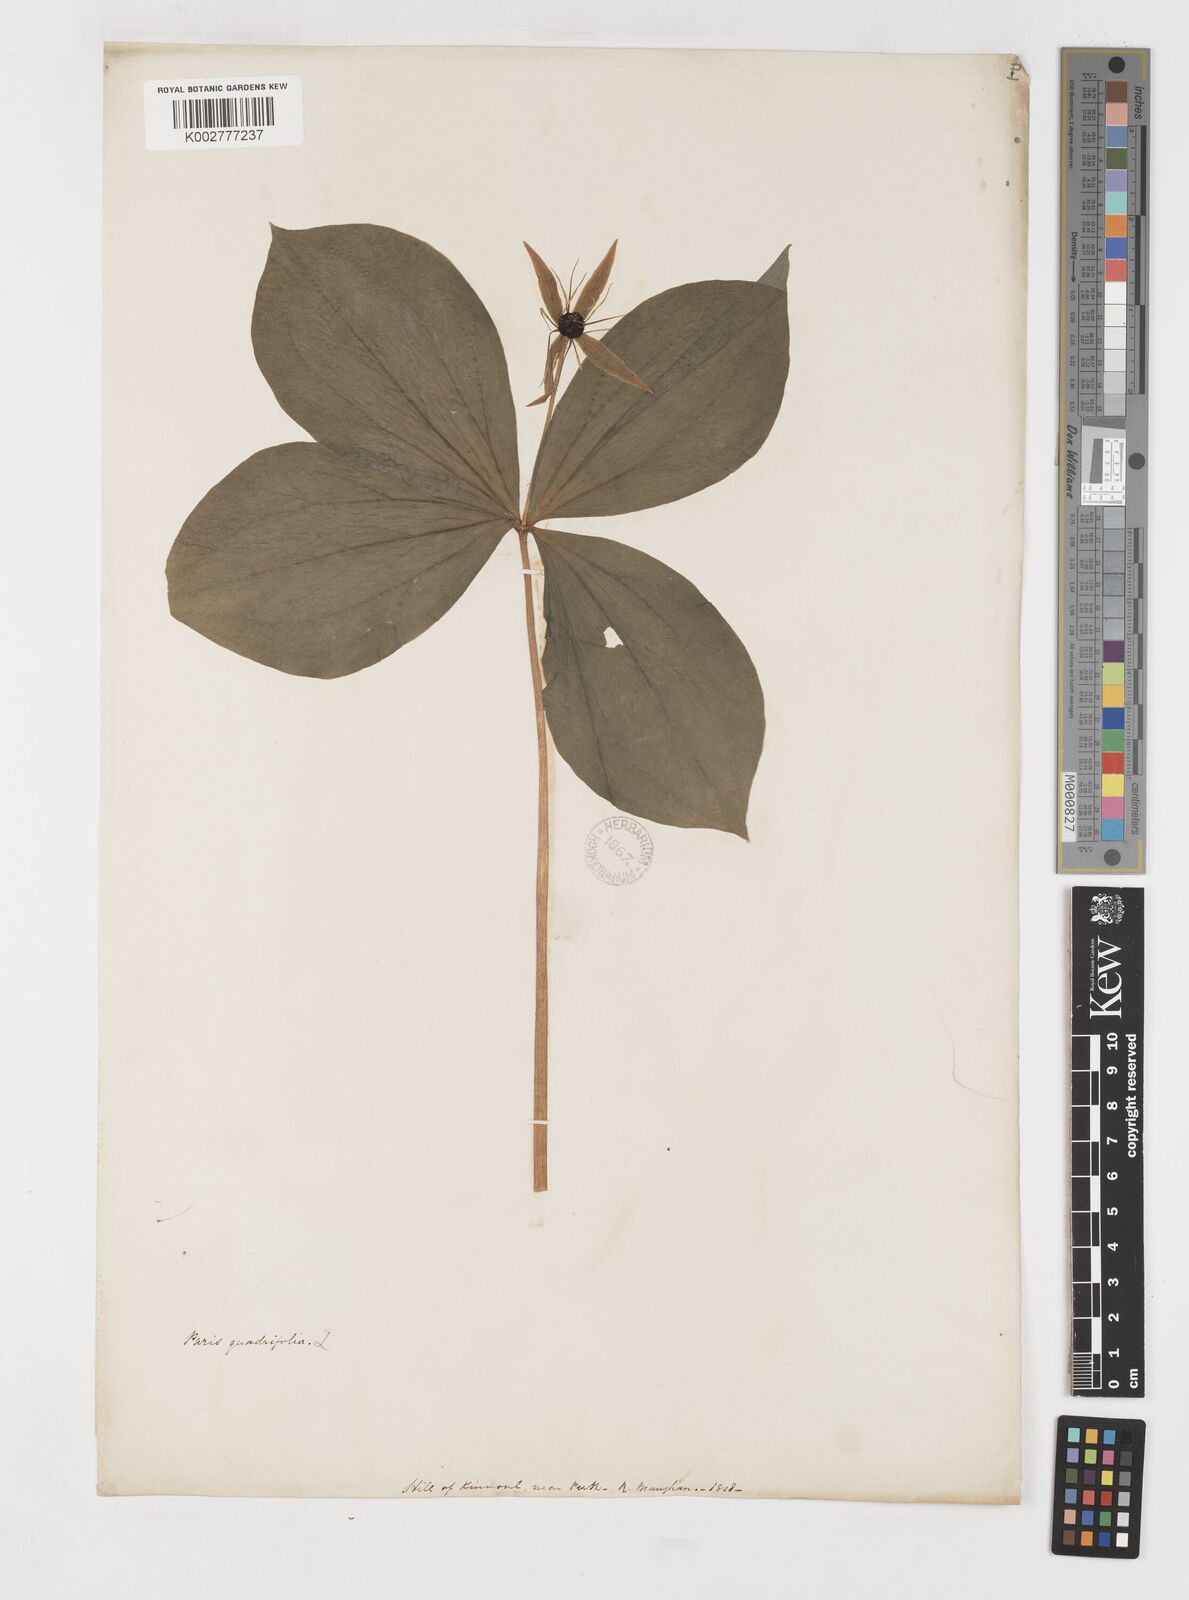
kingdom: Plantae
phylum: Tracheophyta
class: Liliopsida
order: Liliales
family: Melanthiaceae
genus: Paris
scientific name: Paris
